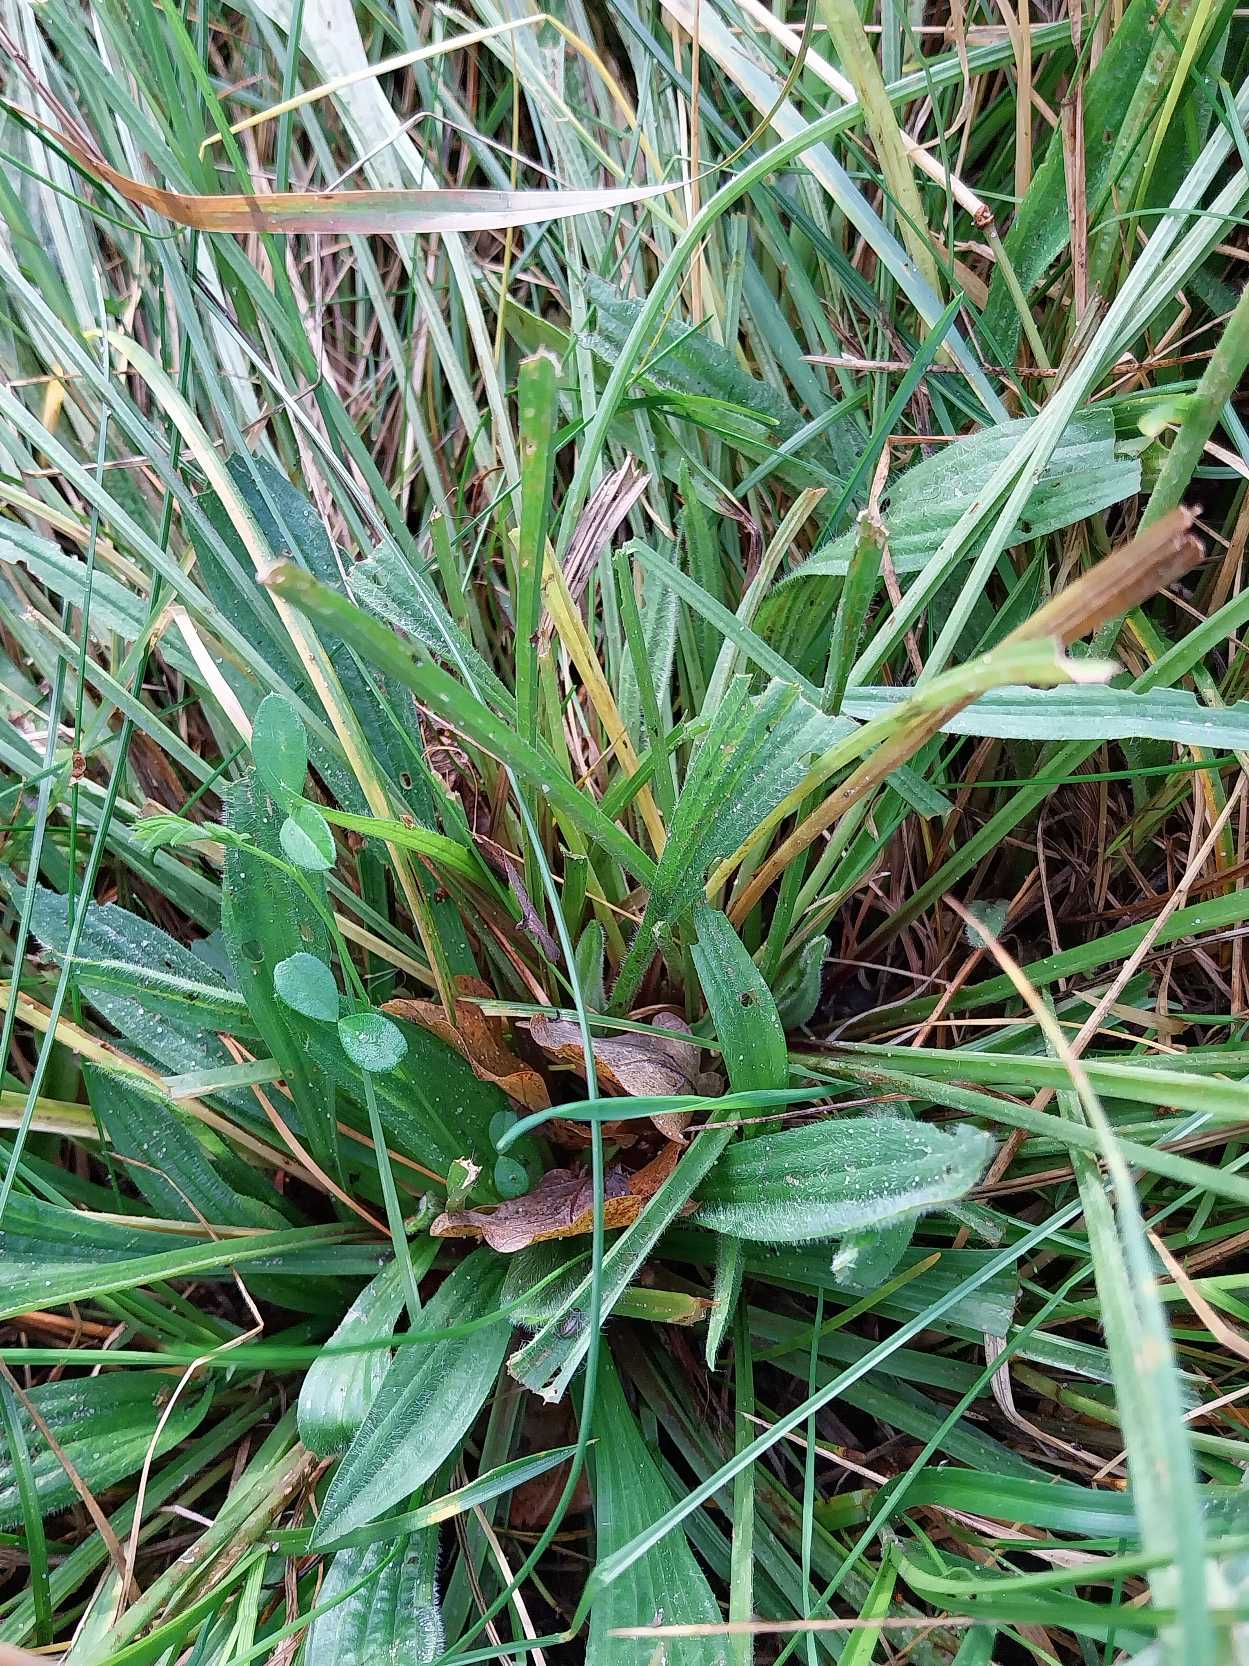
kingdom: Plantae
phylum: Tracheophyta
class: Magnoliopsida
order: Lamiales
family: Plantaginaceae
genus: Plantago
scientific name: Plantago lanceolata
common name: Lancet-vejbred
